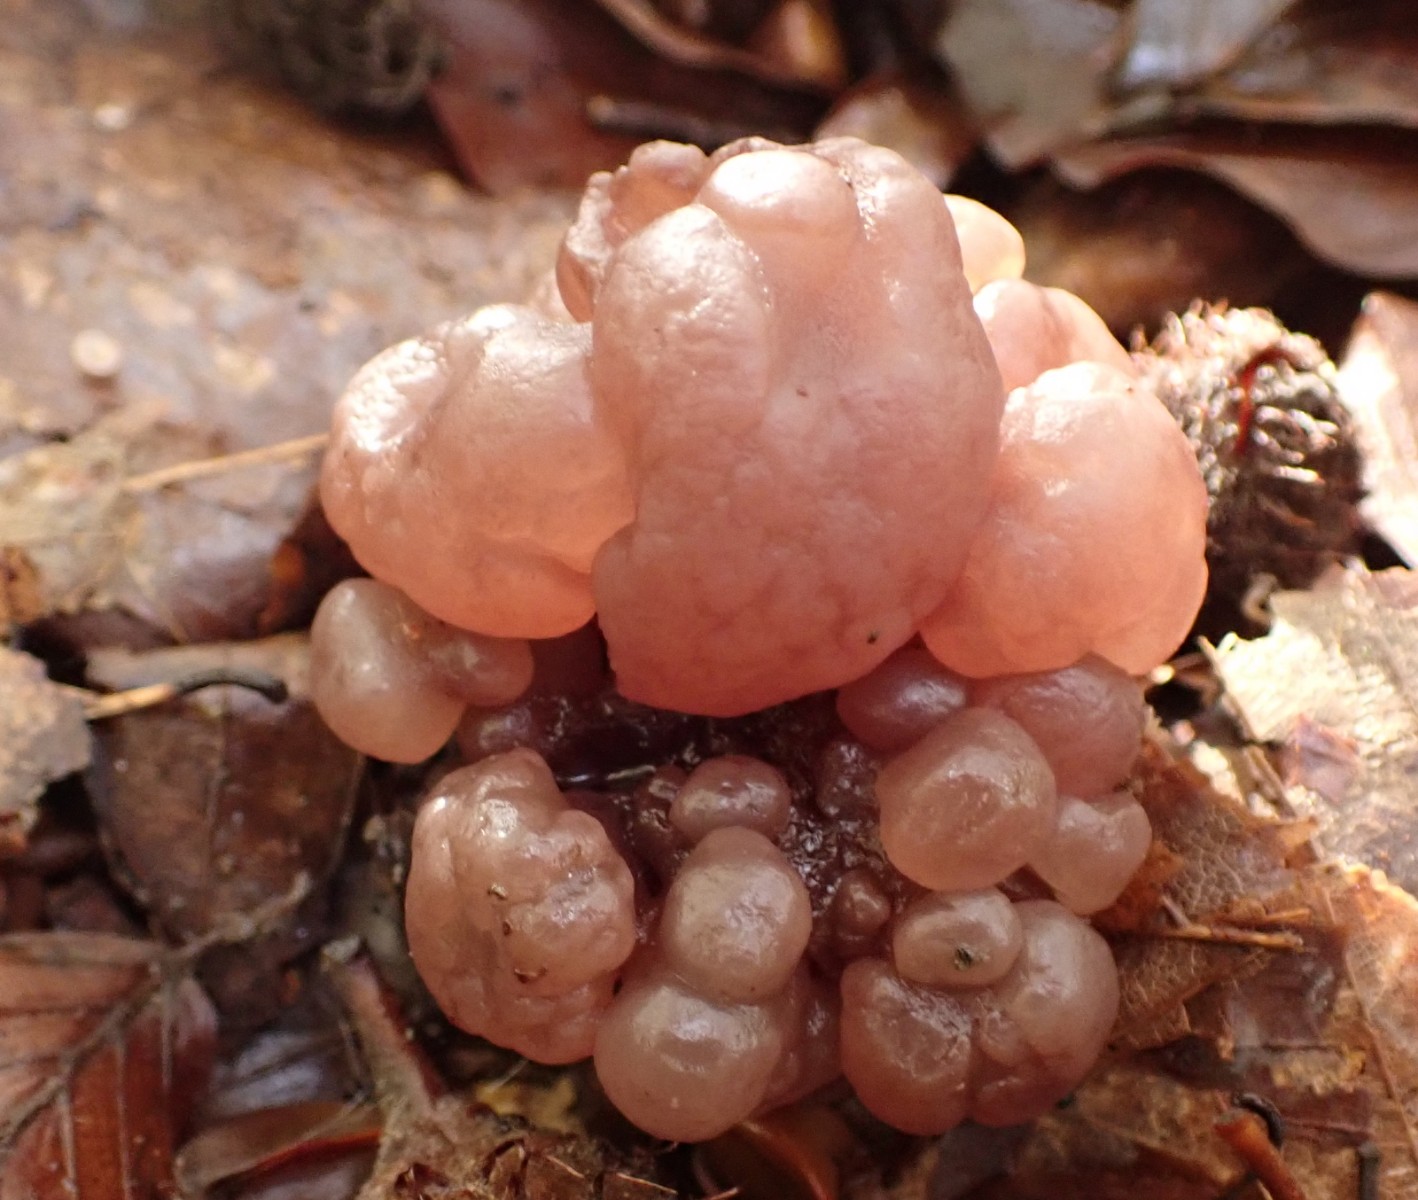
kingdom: Fungi
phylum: Ascomycota
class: Leotiomycetes
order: Helotiales
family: Gelatinodiscaceae
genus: Ascotremella
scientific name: Ascotremella faginea
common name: hjerne-bævreskive
